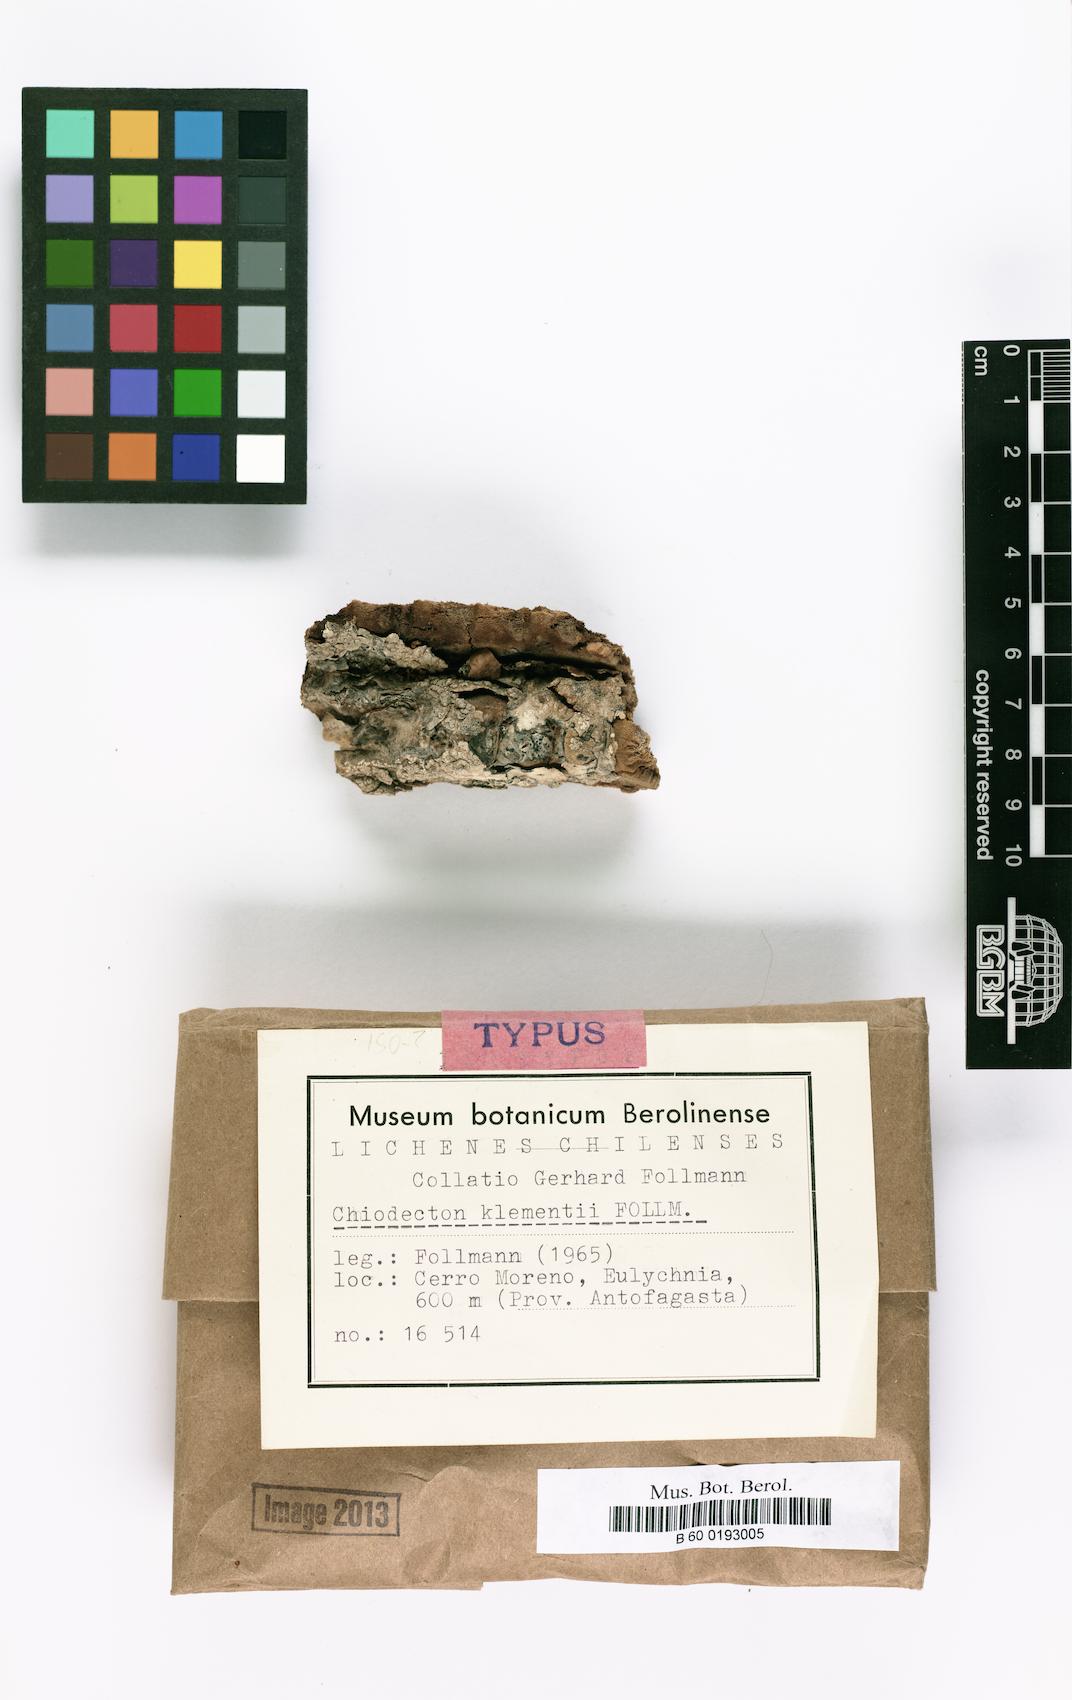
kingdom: Fungi
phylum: Ascomycota
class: Arthoniomycetes
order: Arthoniales
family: Roccellographaceae
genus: Fulvophyton
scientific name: Fulvophyton klementii
